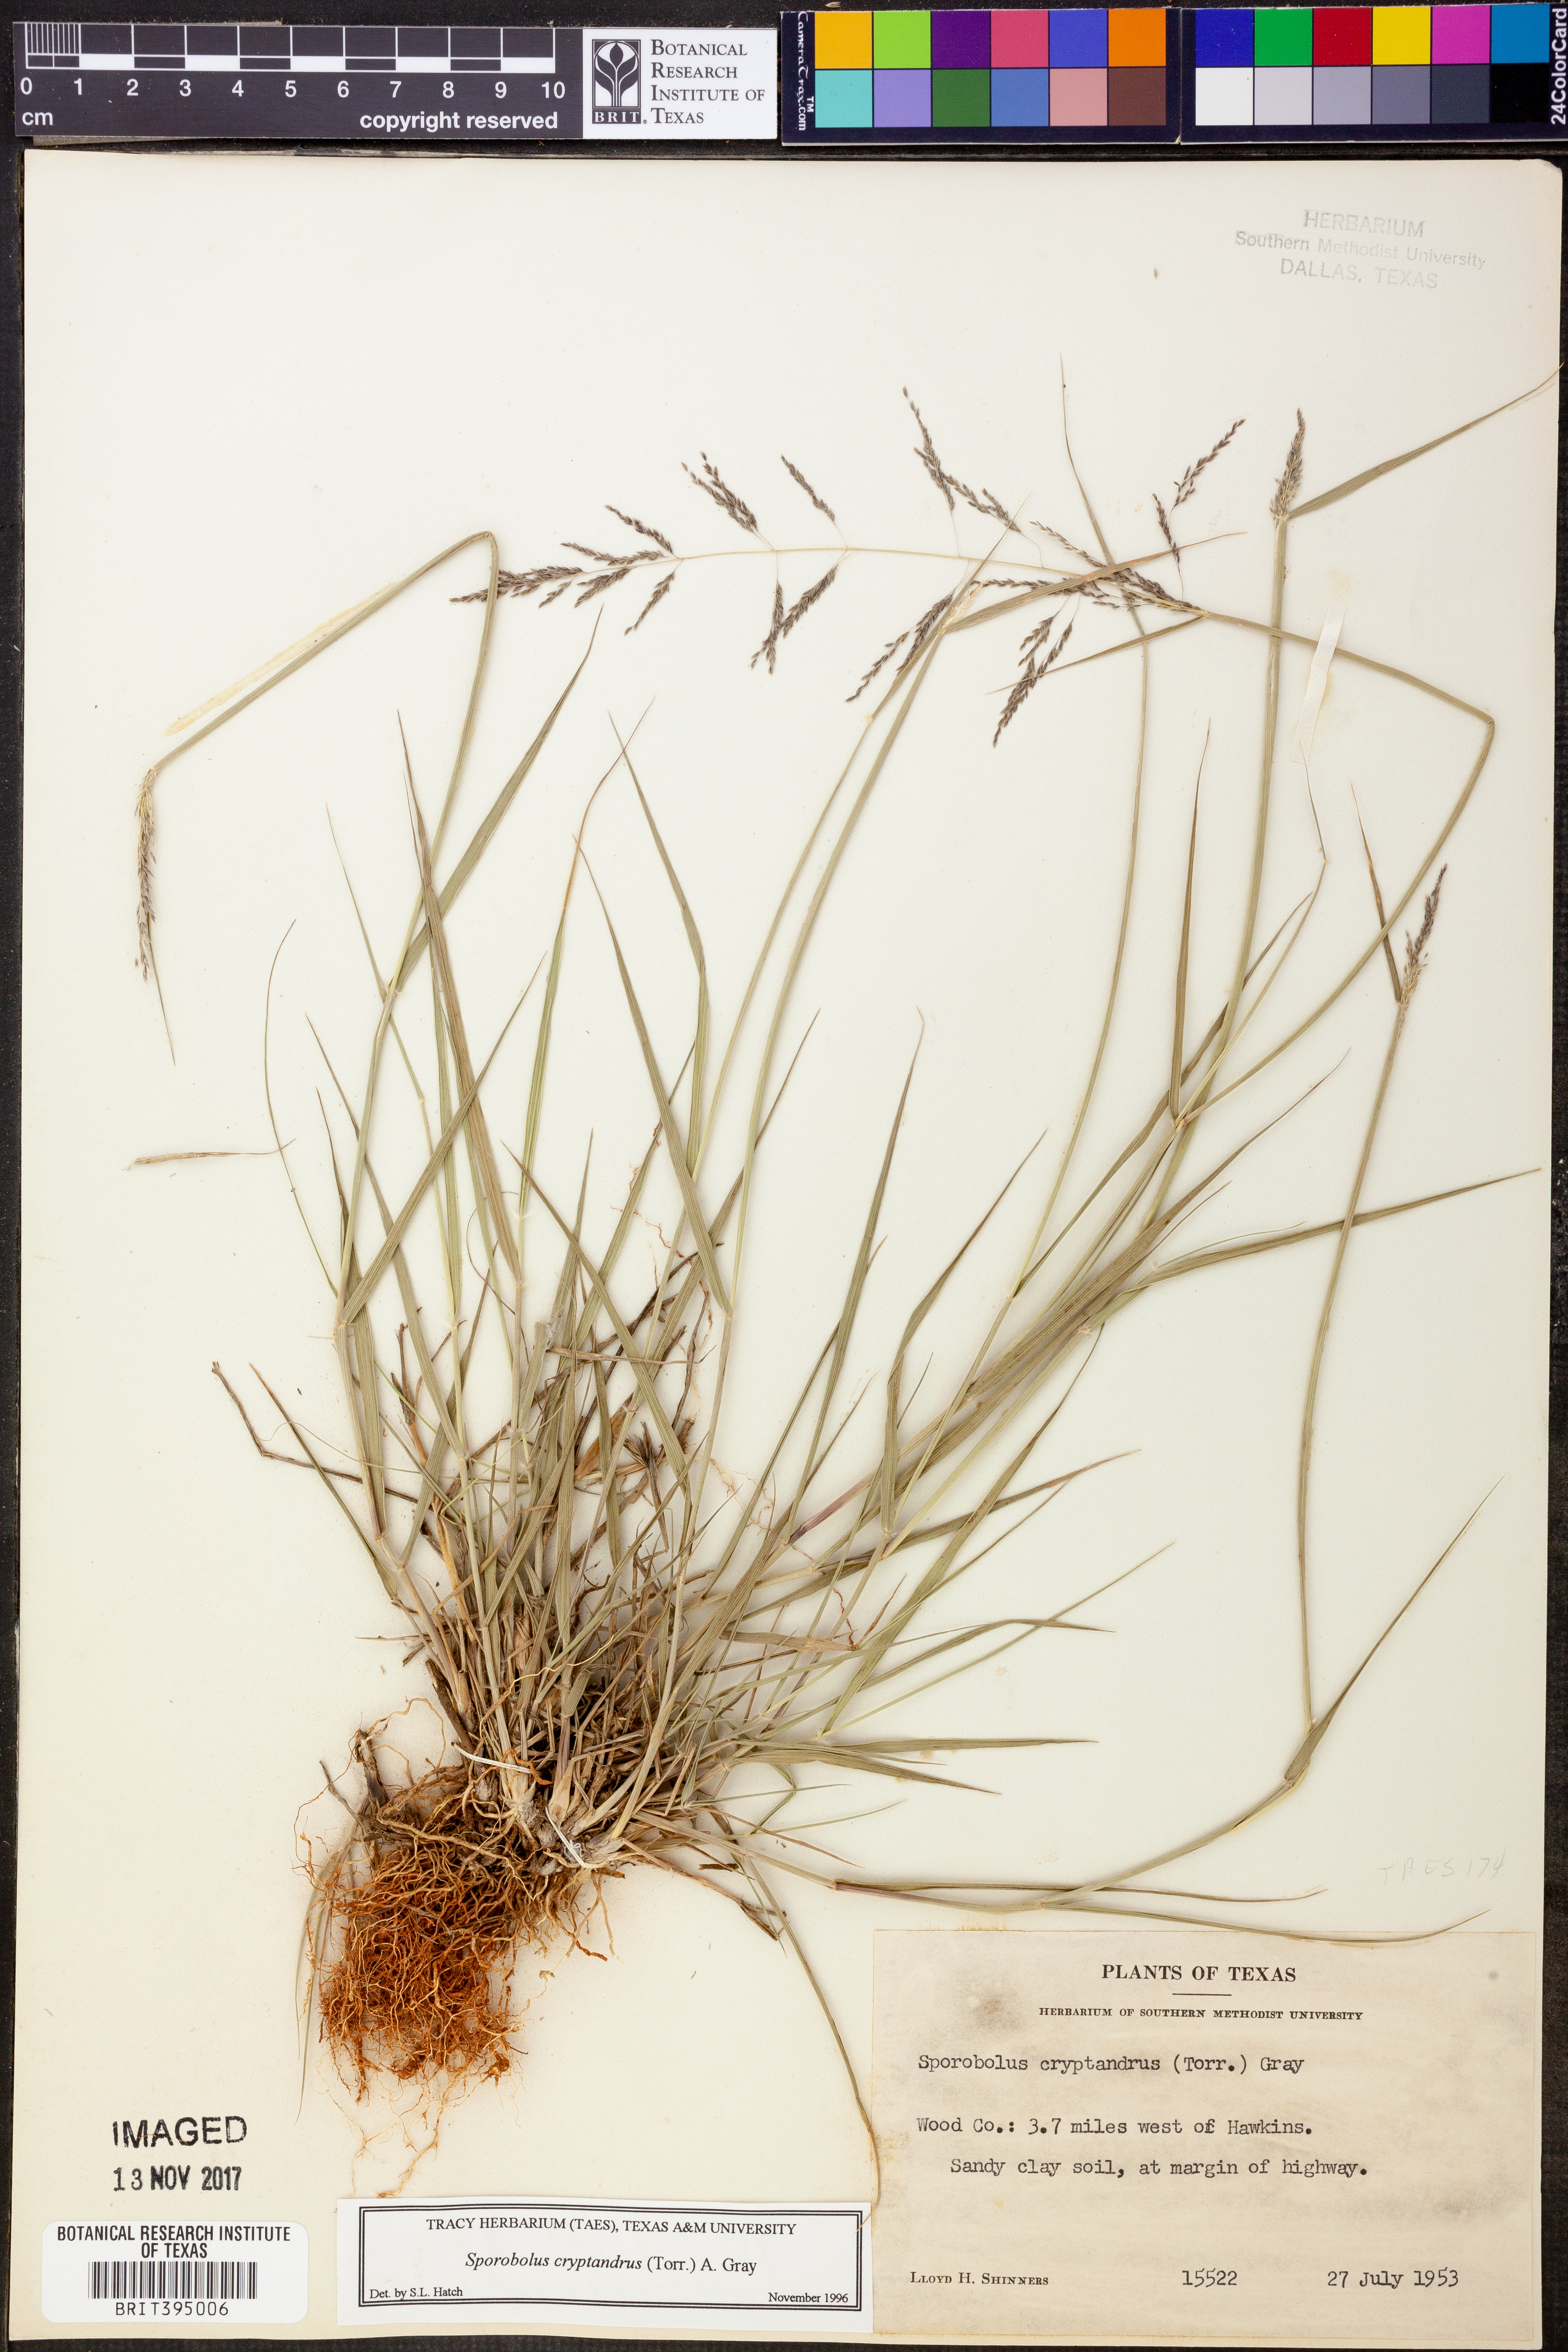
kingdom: Plantae
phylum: Tracheophyta
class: Liliopsida
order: Poales
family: Poaceae
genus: Sporobolus
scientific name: Sporobolus cryptandrus
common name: Sand dropseed
